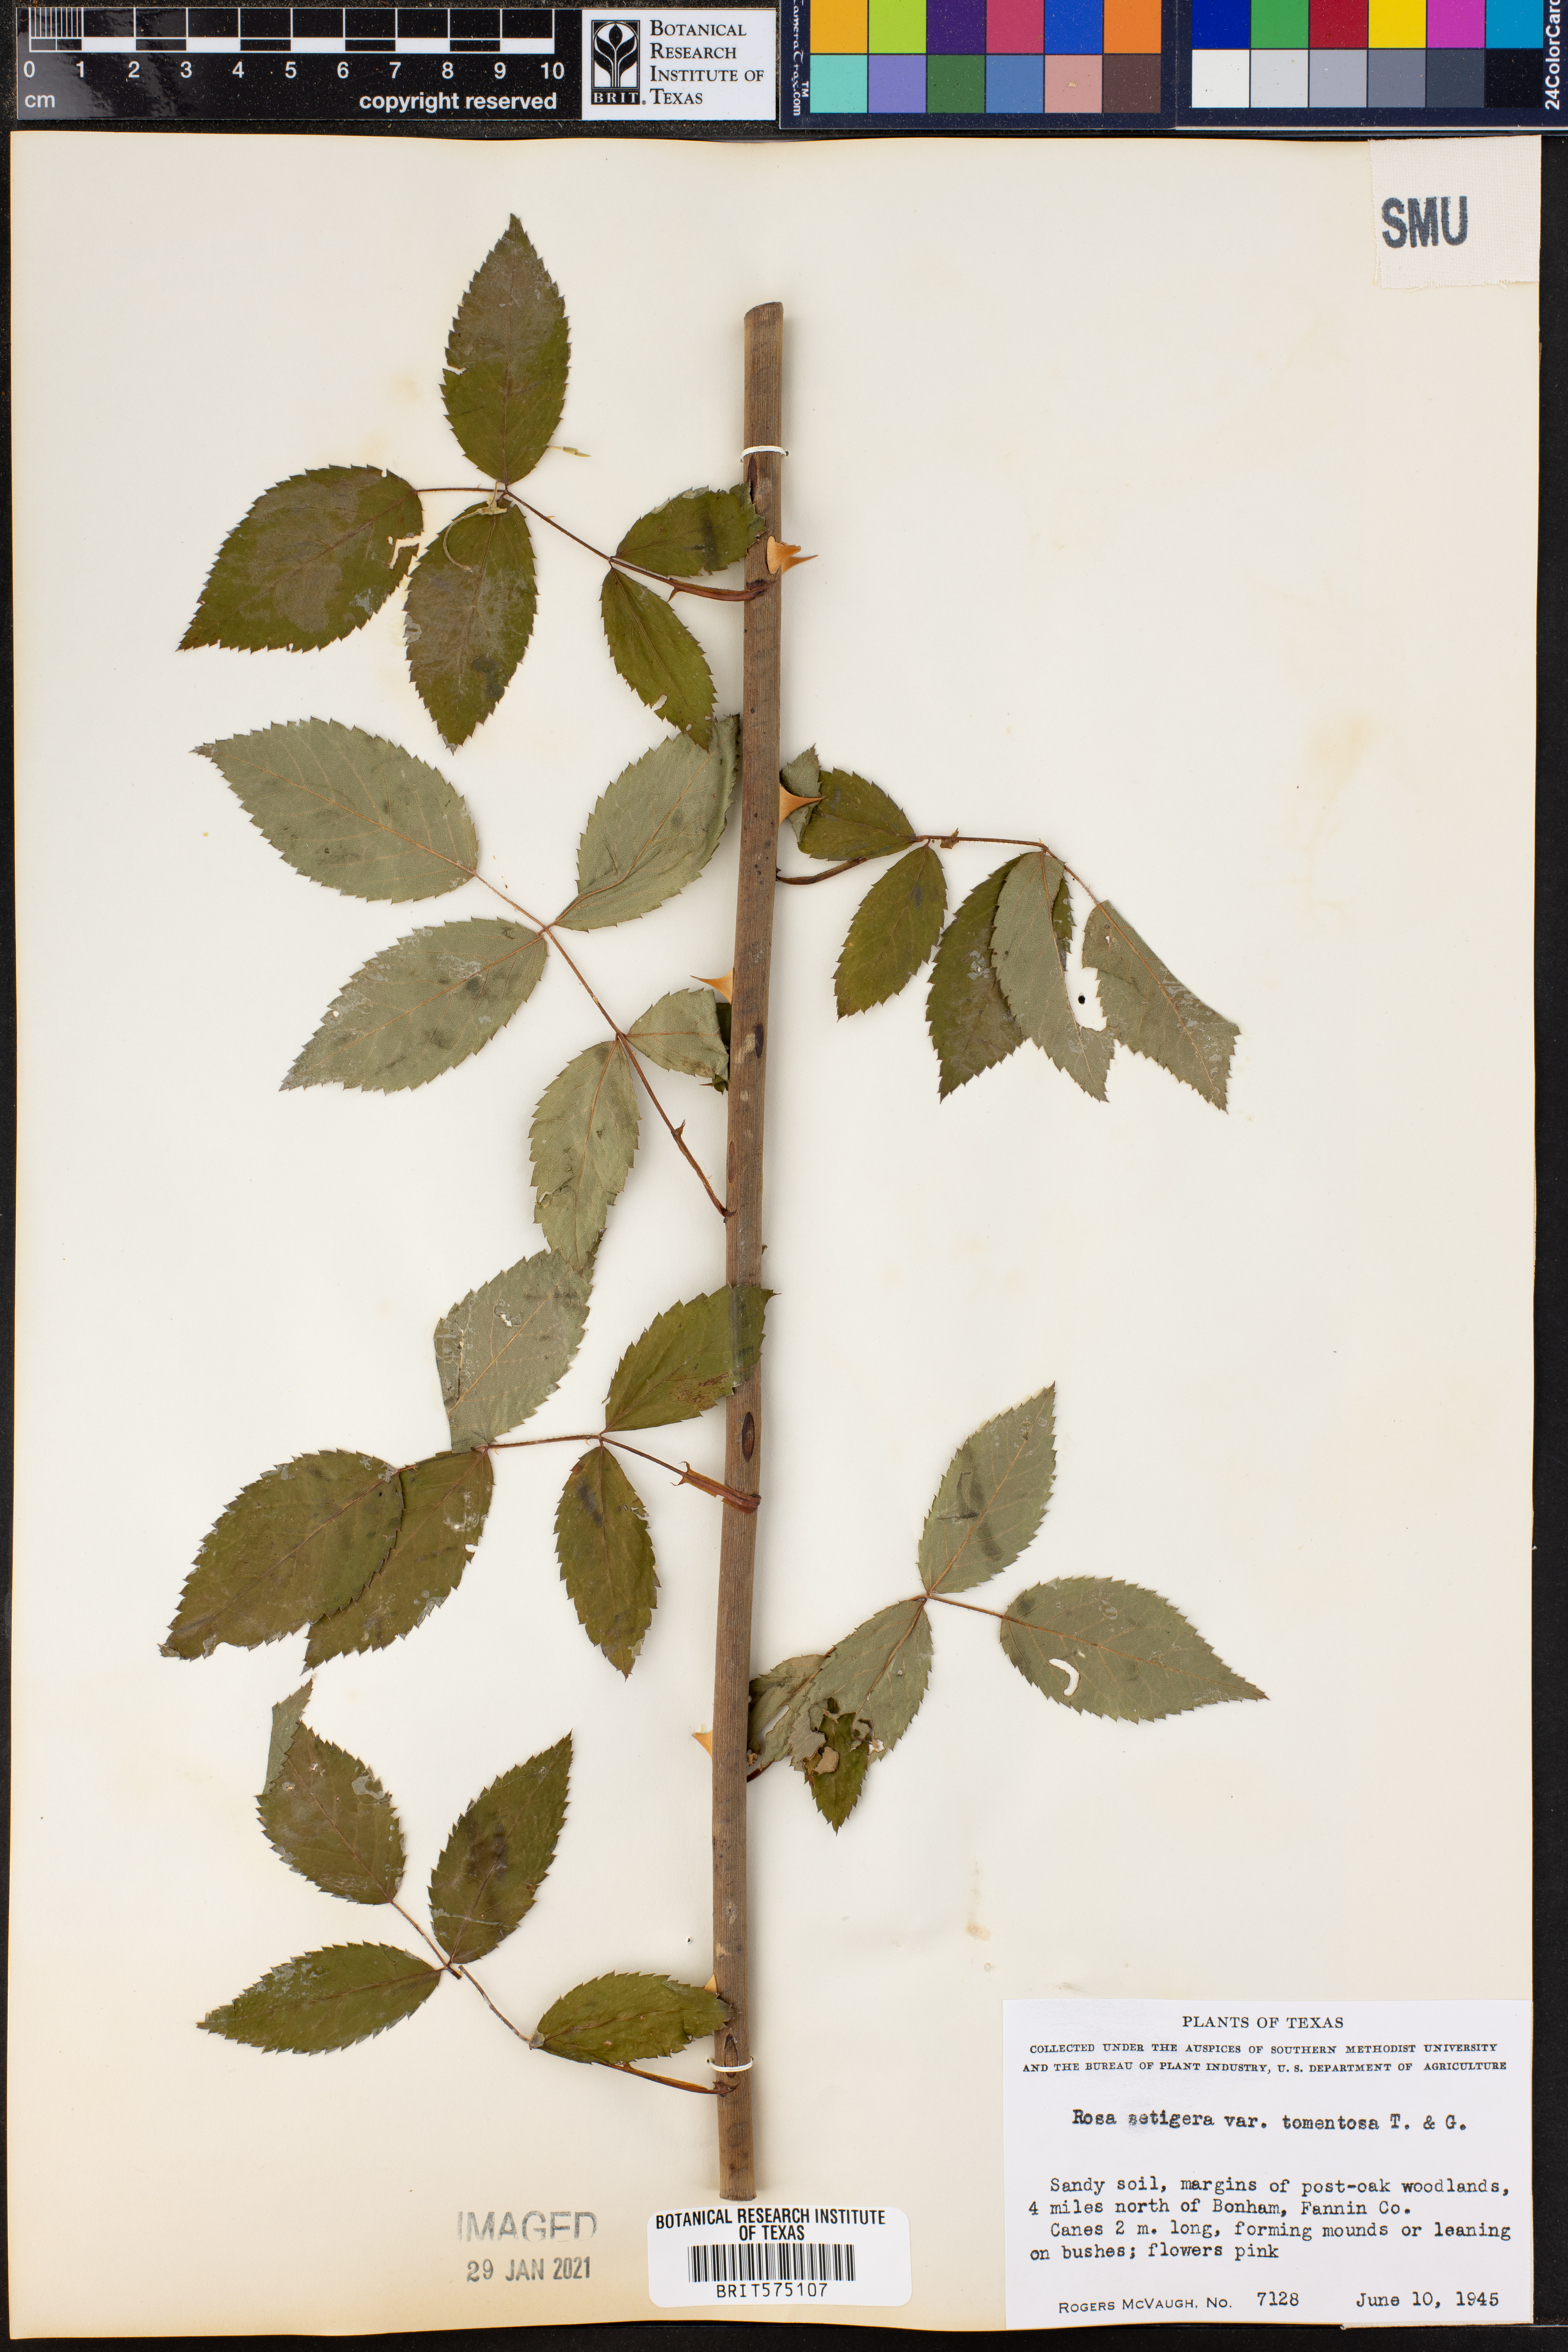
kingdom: Plantae
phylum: Tracheophyta
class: Magnoliopsida
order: Rosales
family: Rosaceae
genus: Rosa
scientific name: Rosa setigera
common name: Prairie rose
